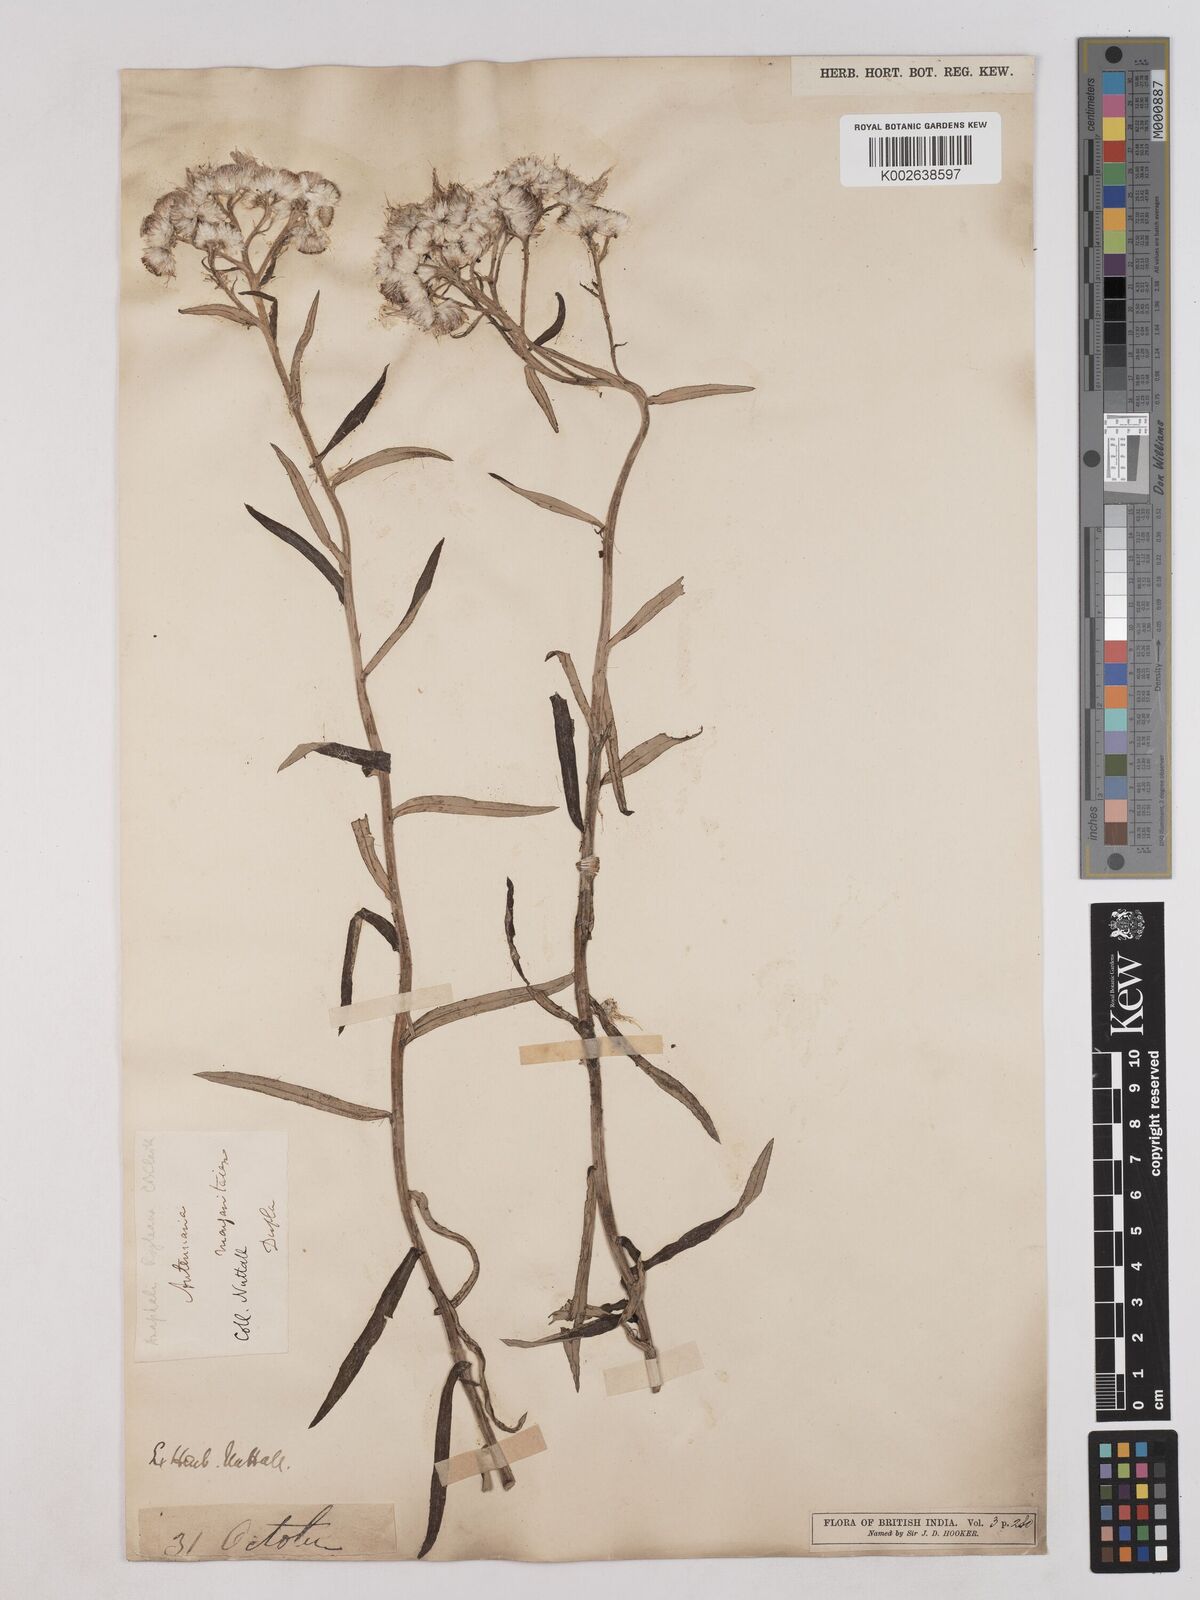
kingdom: Plantae
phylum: Tracheophyta
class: Magnoliopsida
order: Asterales
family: Asteraceae
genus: Anaphalis
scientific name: Anaphalis griffithii
